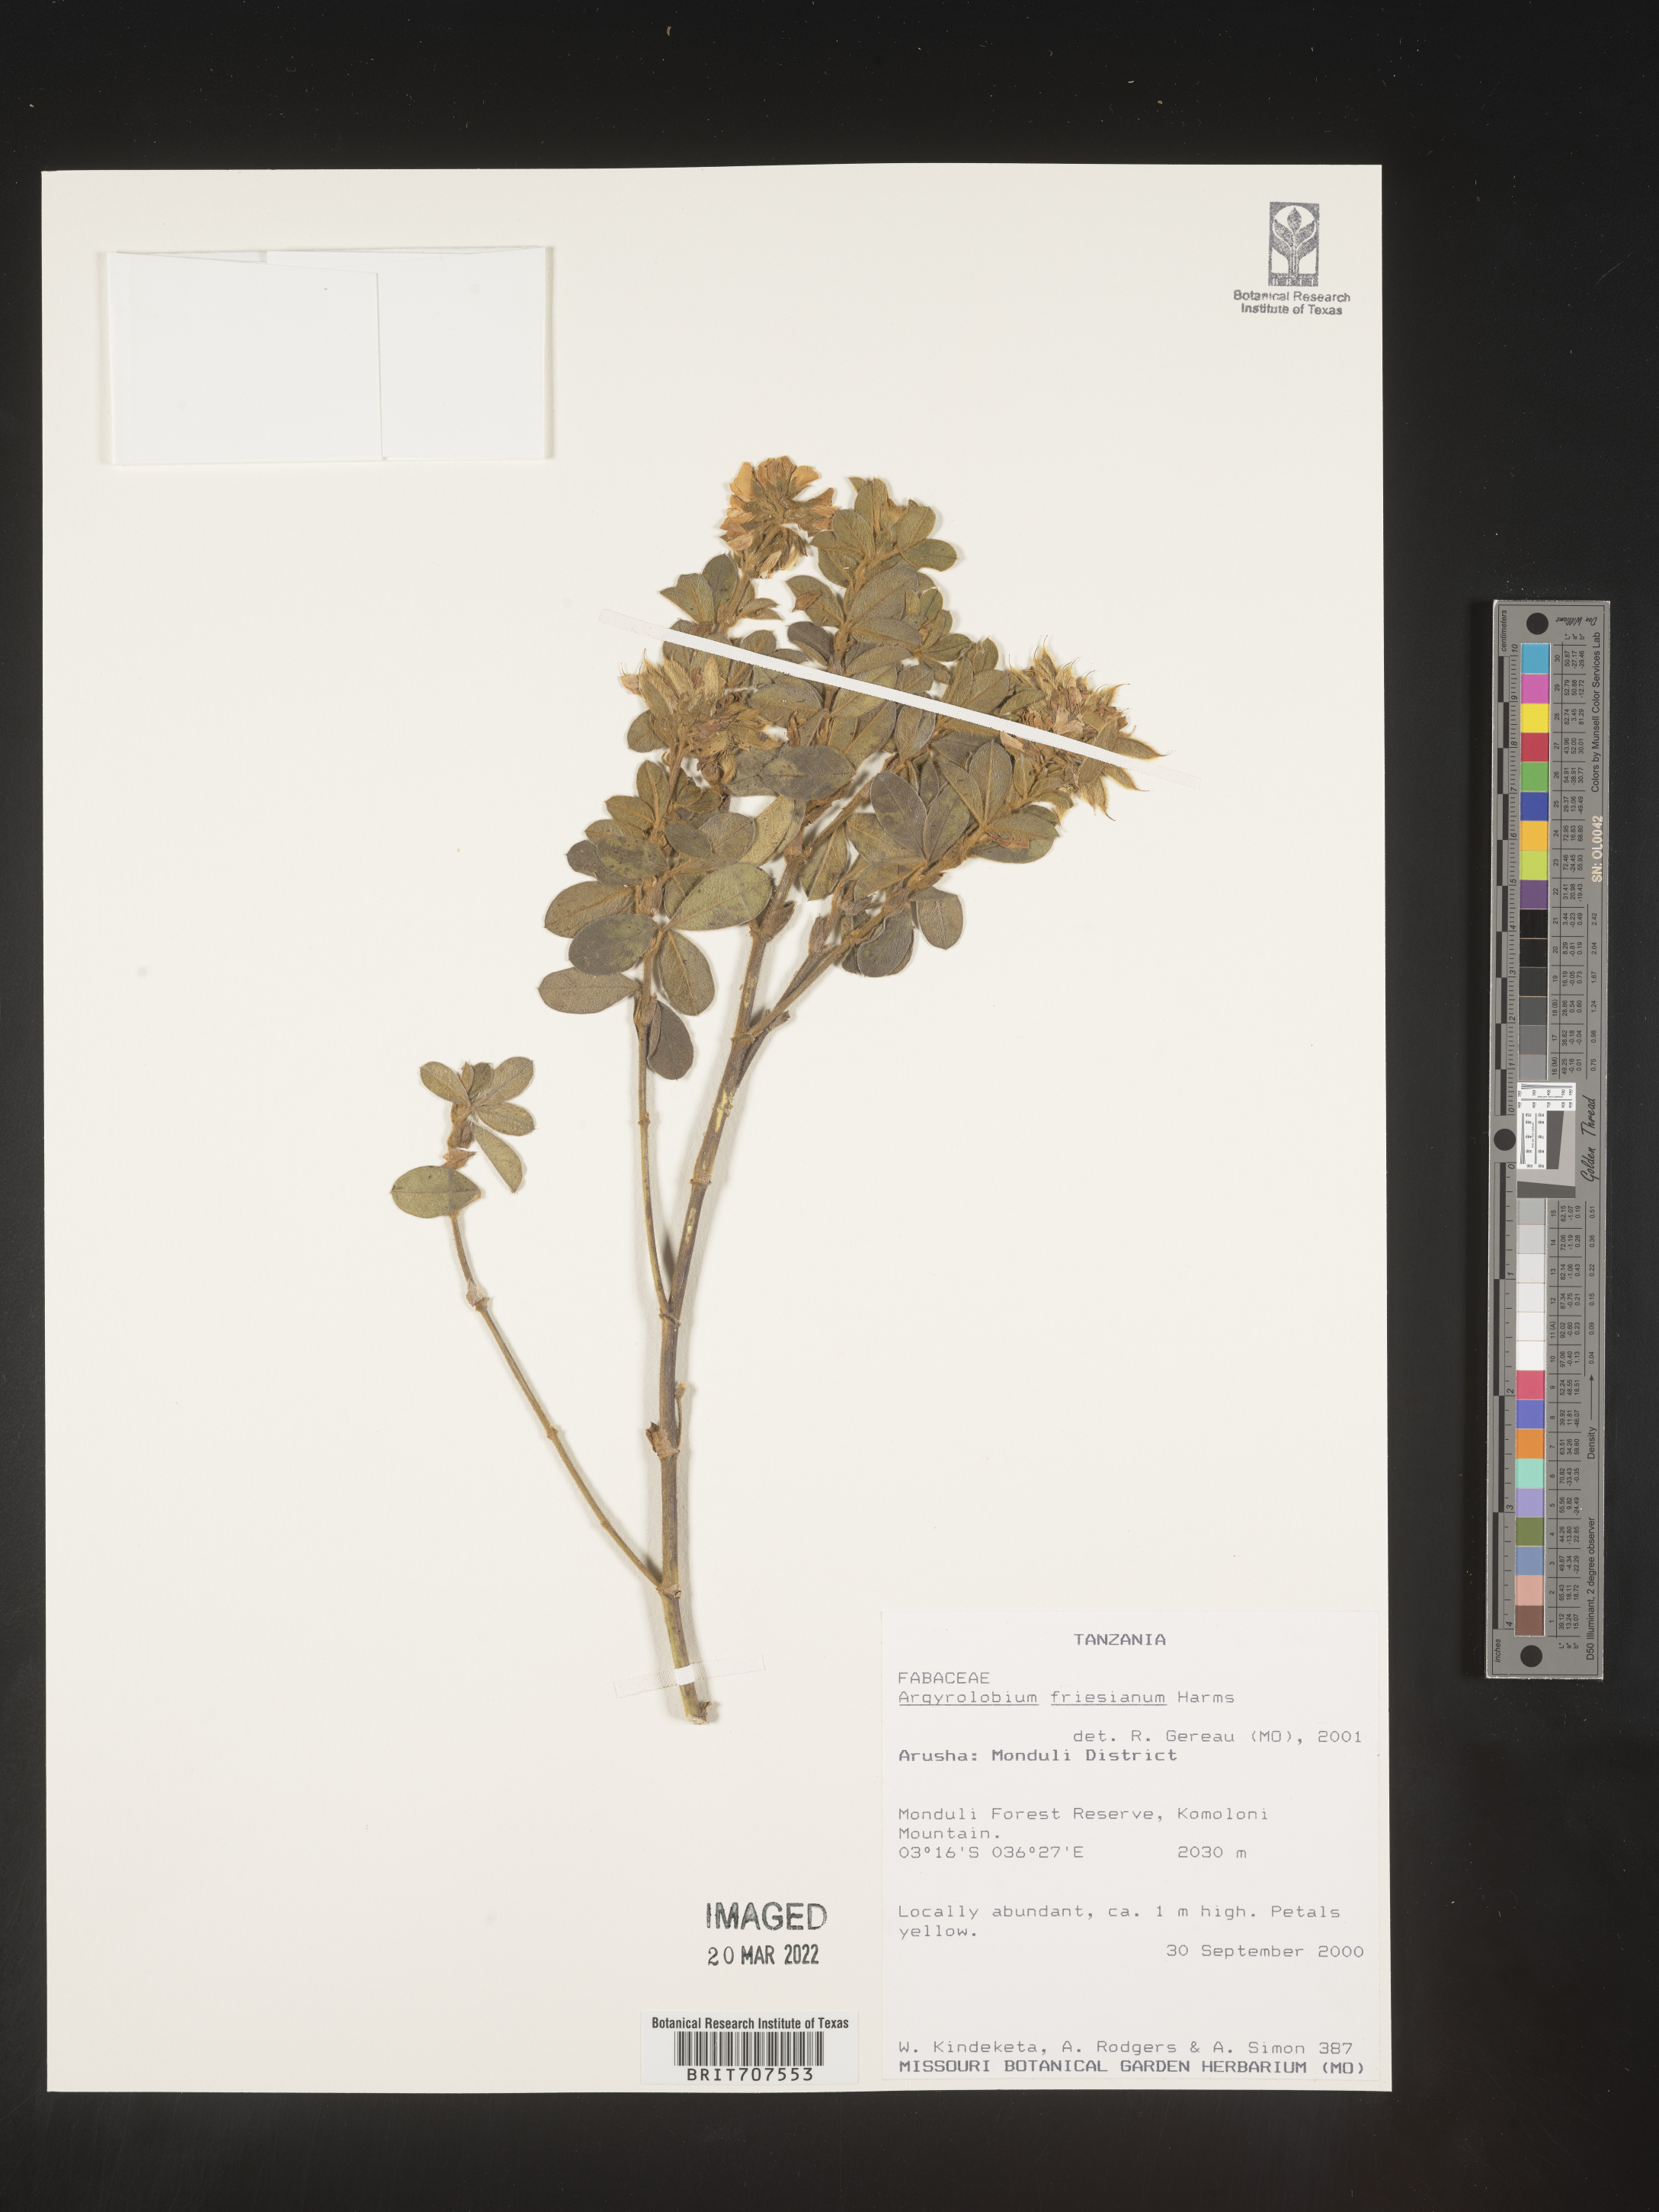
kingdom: Plantae
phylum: Tracheophyta
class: Magnoliopsida
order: Fabales
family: Fabaceae
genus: Argyrolobium
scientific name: Argyrolobium
